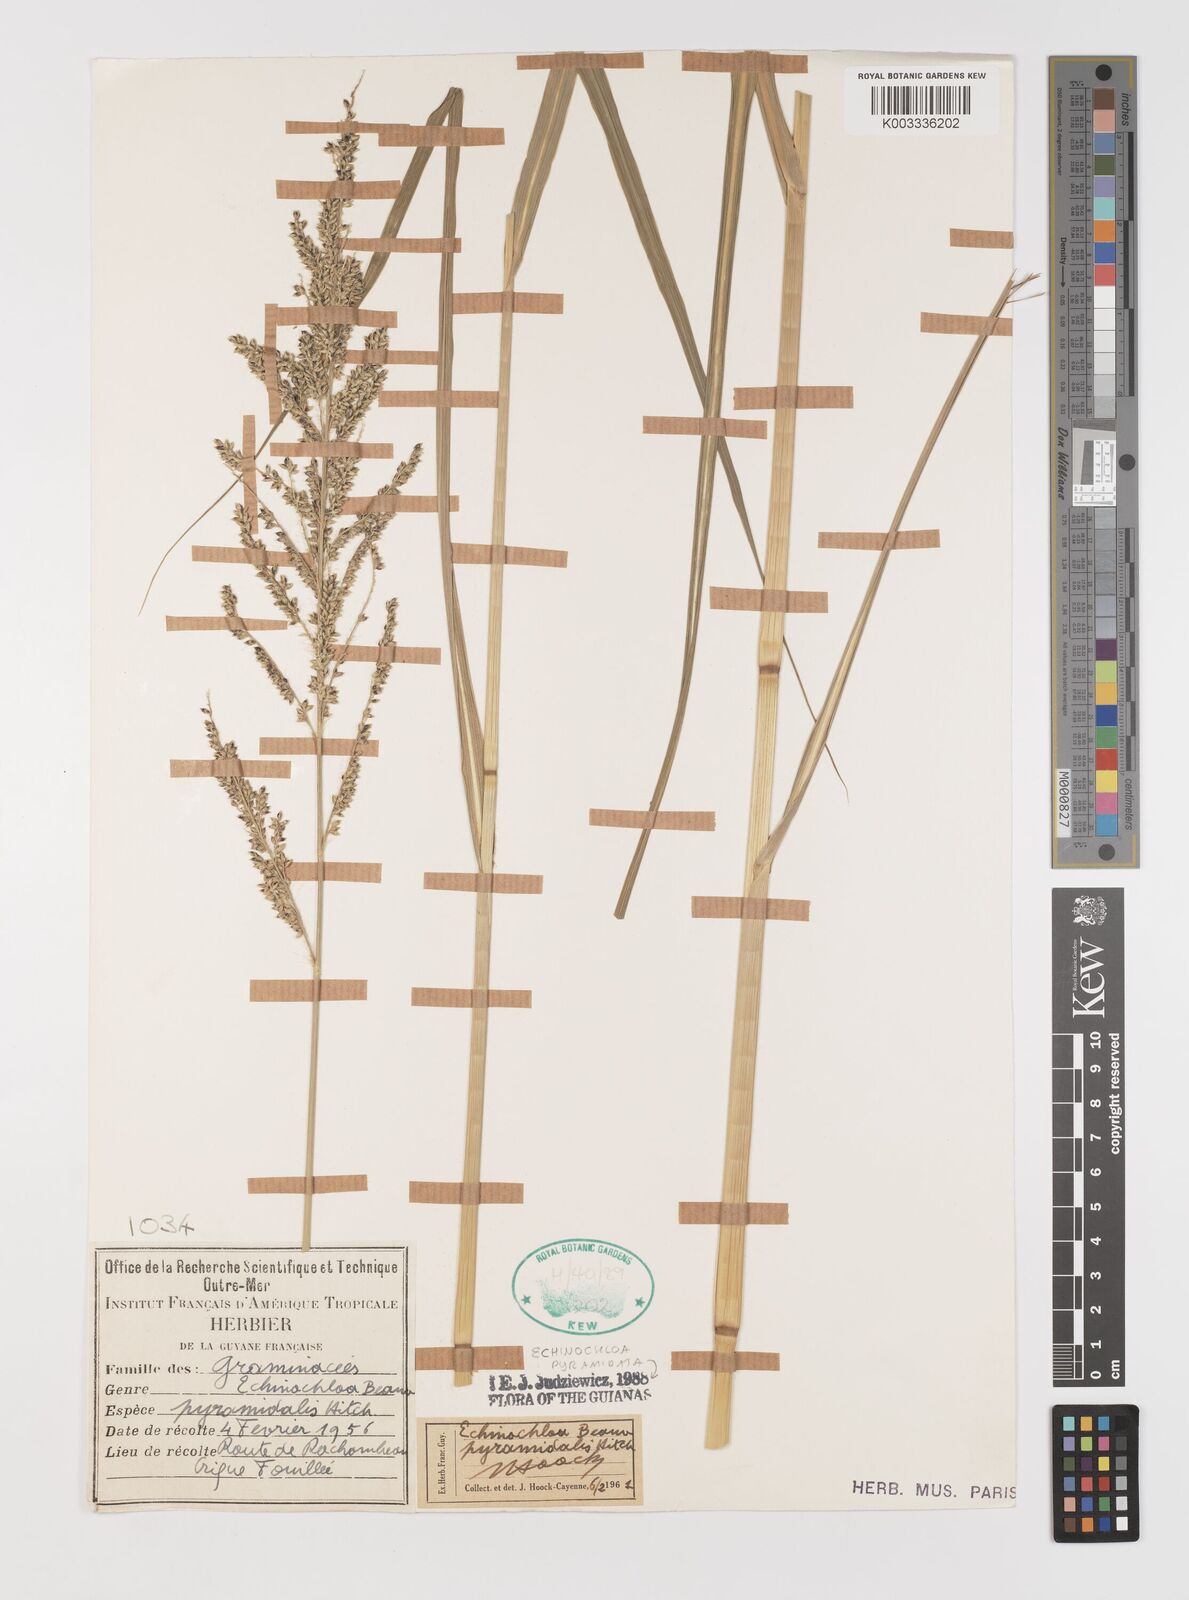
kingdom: Plantae
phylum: Tracheophyta
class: Liliopsida
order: Poales
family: Poaceae
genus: Echinochloa
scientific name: Echinochloa pyramidalis
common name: Antelope grass
